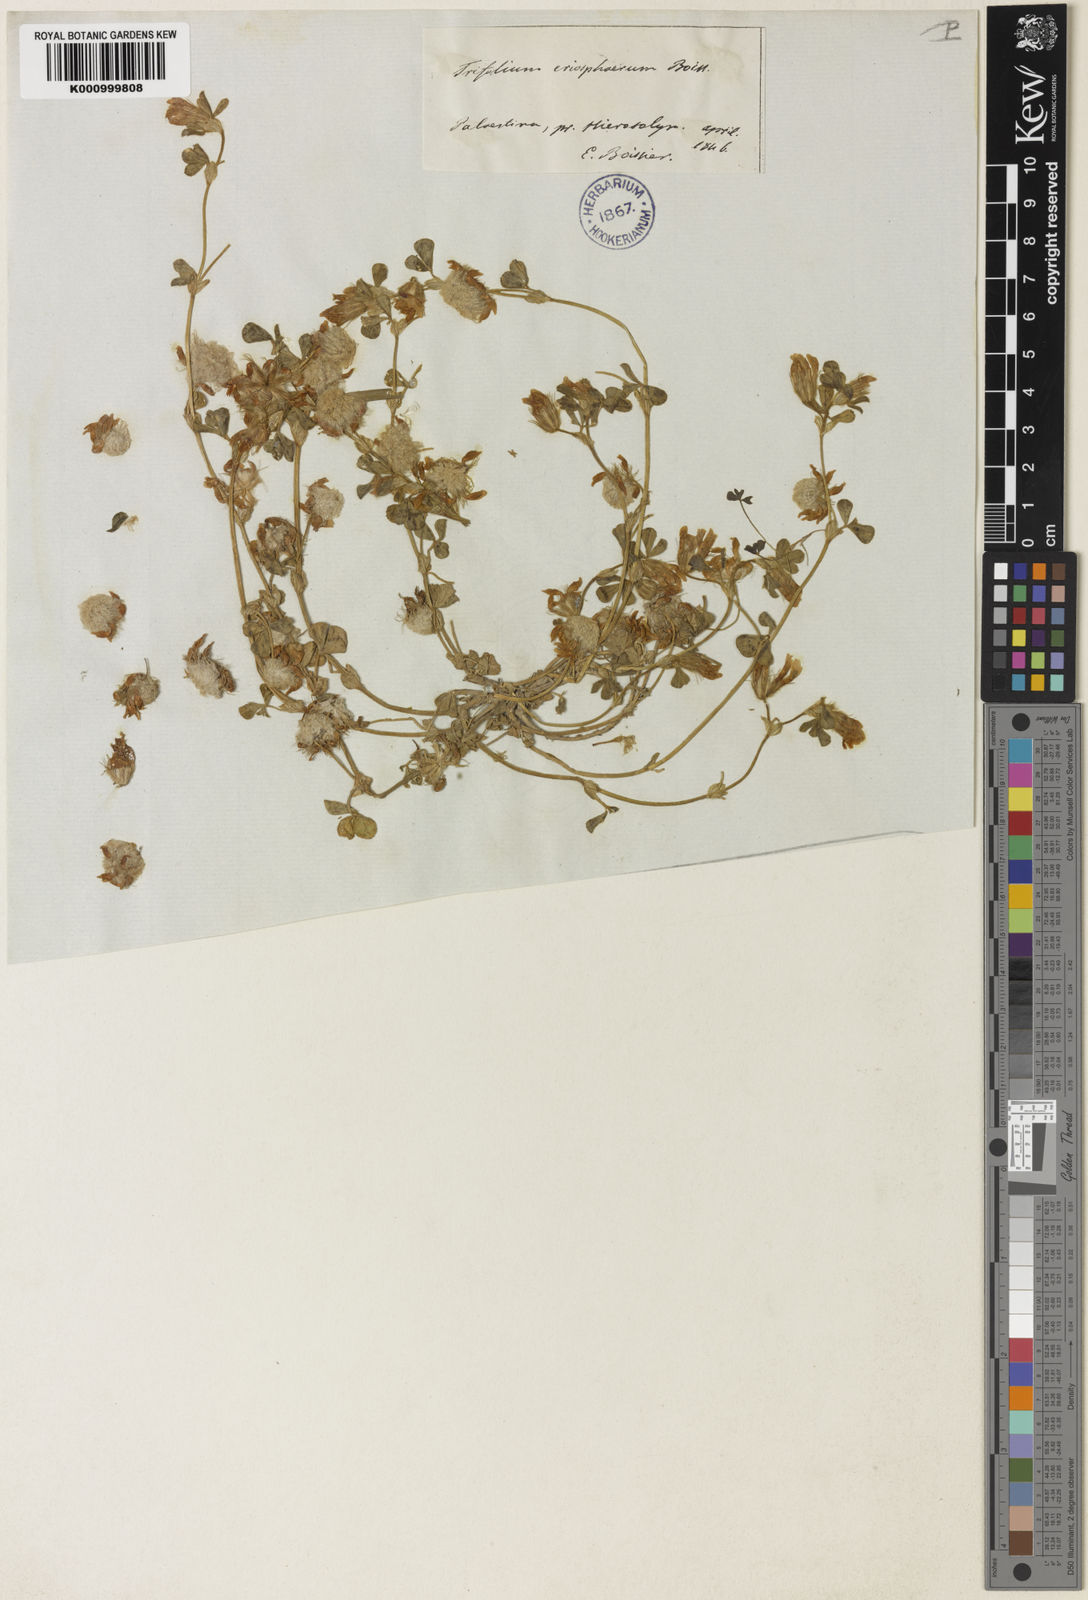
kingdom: Plantae
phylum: Tracheophyta
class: Magnoliopsida
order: Fabales
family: Fabaceae
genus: Trifolium
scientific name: Trifolium eriosphaerum
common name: Woolly round-head clover
